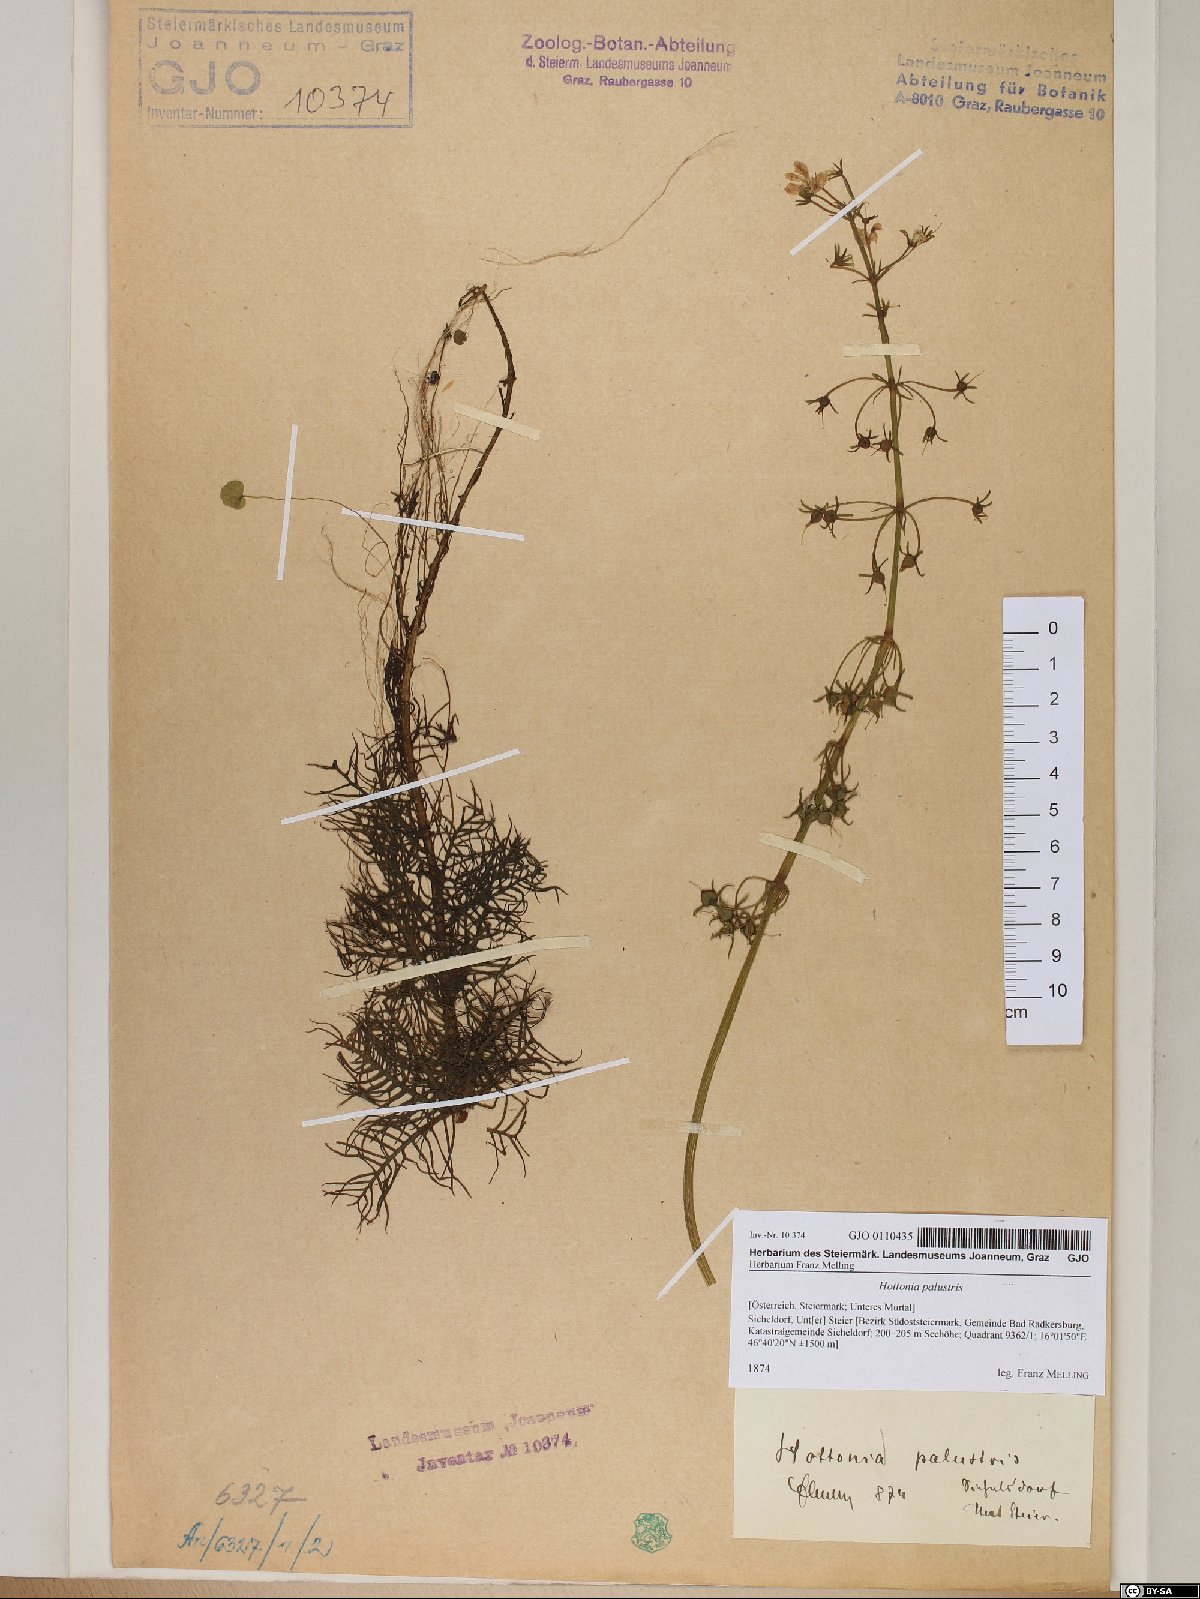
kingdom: Plantae
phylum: Tracheophyta
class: Magnoliopsida
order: Ericales
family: Primulaceae
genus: Hottonia
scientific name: Hottonia palustris
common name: Water-violet
